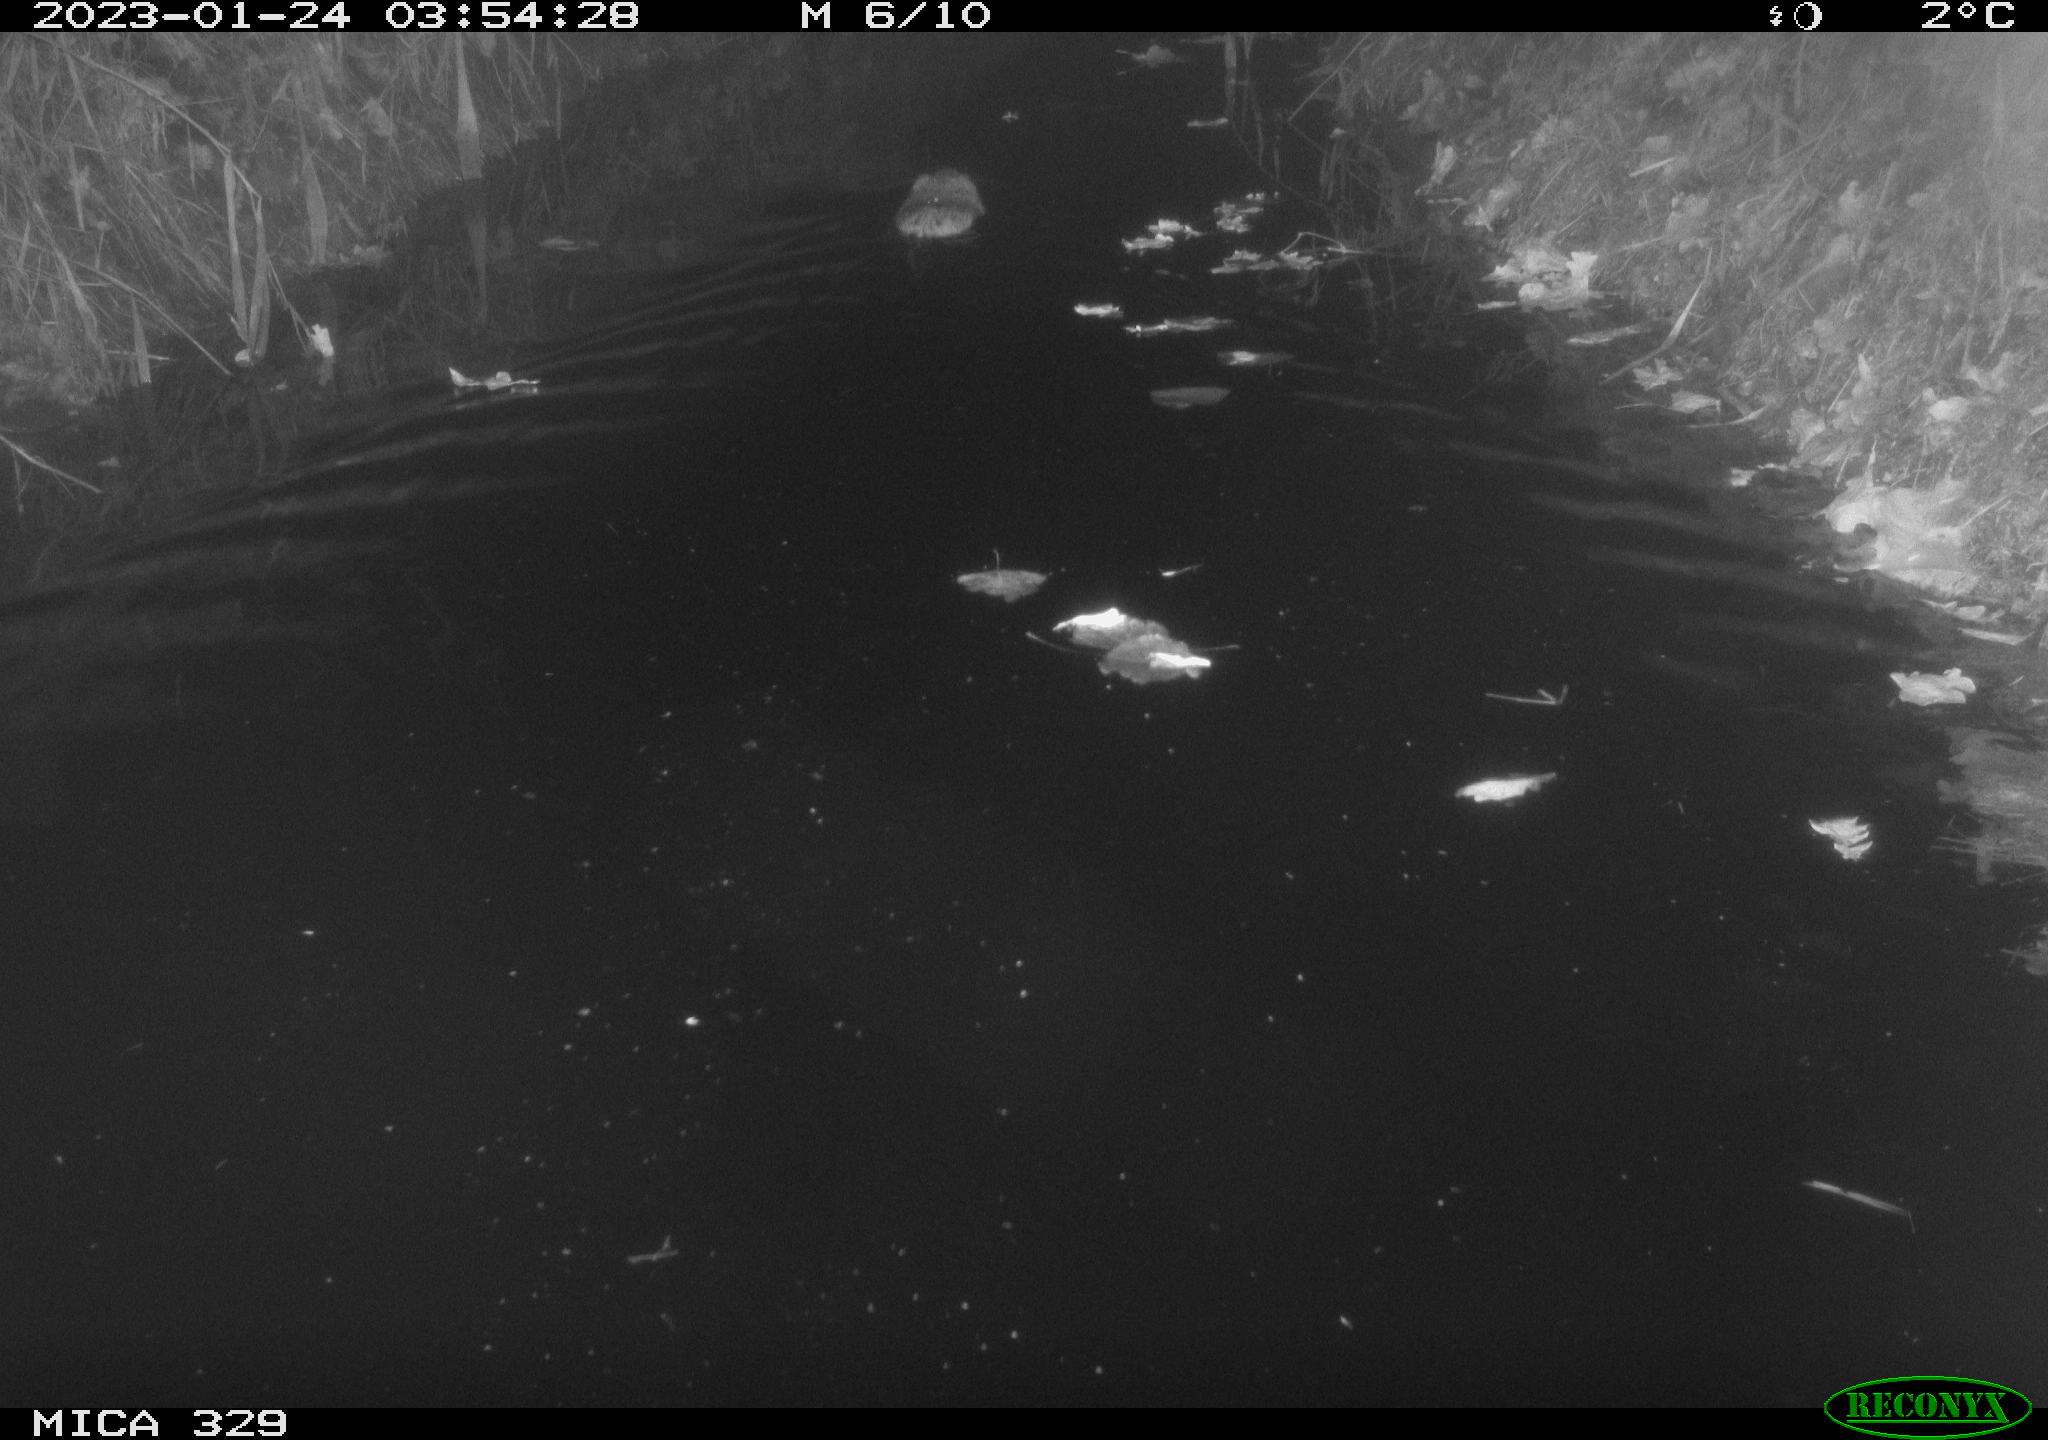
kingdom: Animalia
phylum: Chordata
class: Mammalia
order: Rodentia
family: Cricetidae
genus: Ondatra
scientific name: Ondatra zibethicus
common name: Muskrat
